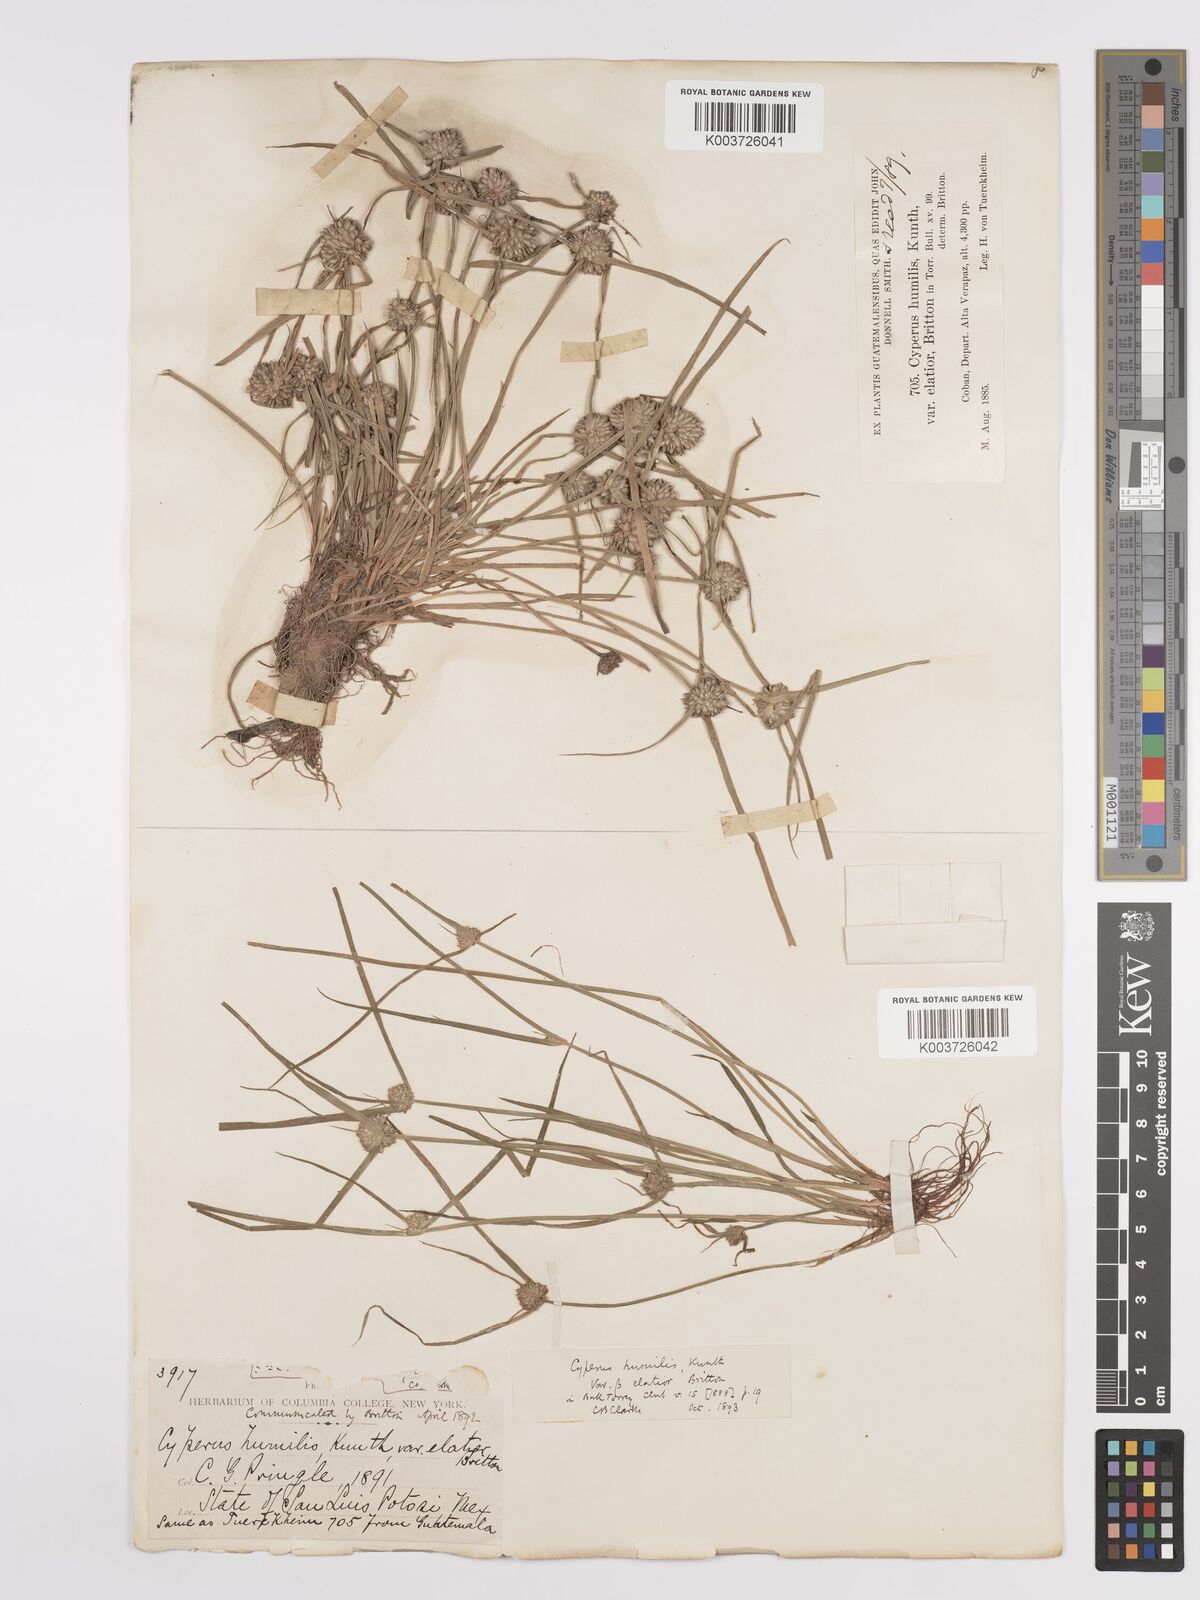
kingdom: Plantae
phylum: Tracheophyta
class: Liliopsida
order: Poales
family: Cyperaceae
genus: Cyperus
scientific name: Cyperus humilis
